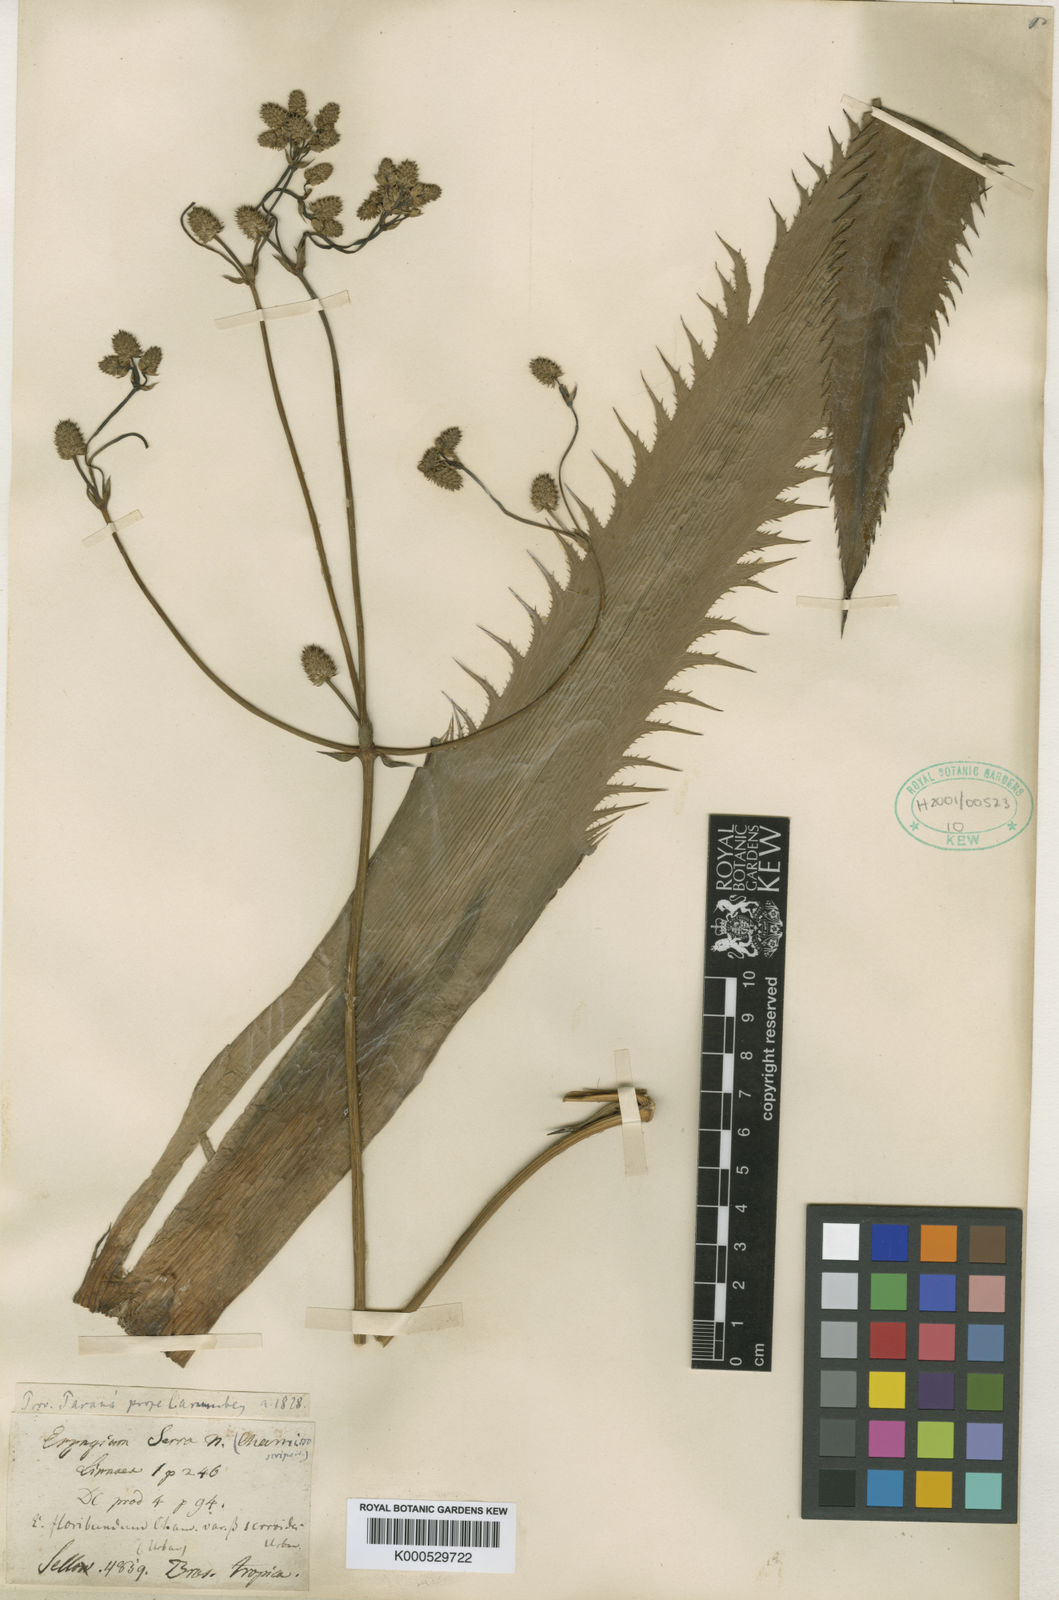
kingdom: Plantae
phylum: Tracheophyta
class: Magnoliopsida
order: Apiales
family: Apiaceae
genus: Eryngium
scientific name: Eryngium floribundum
